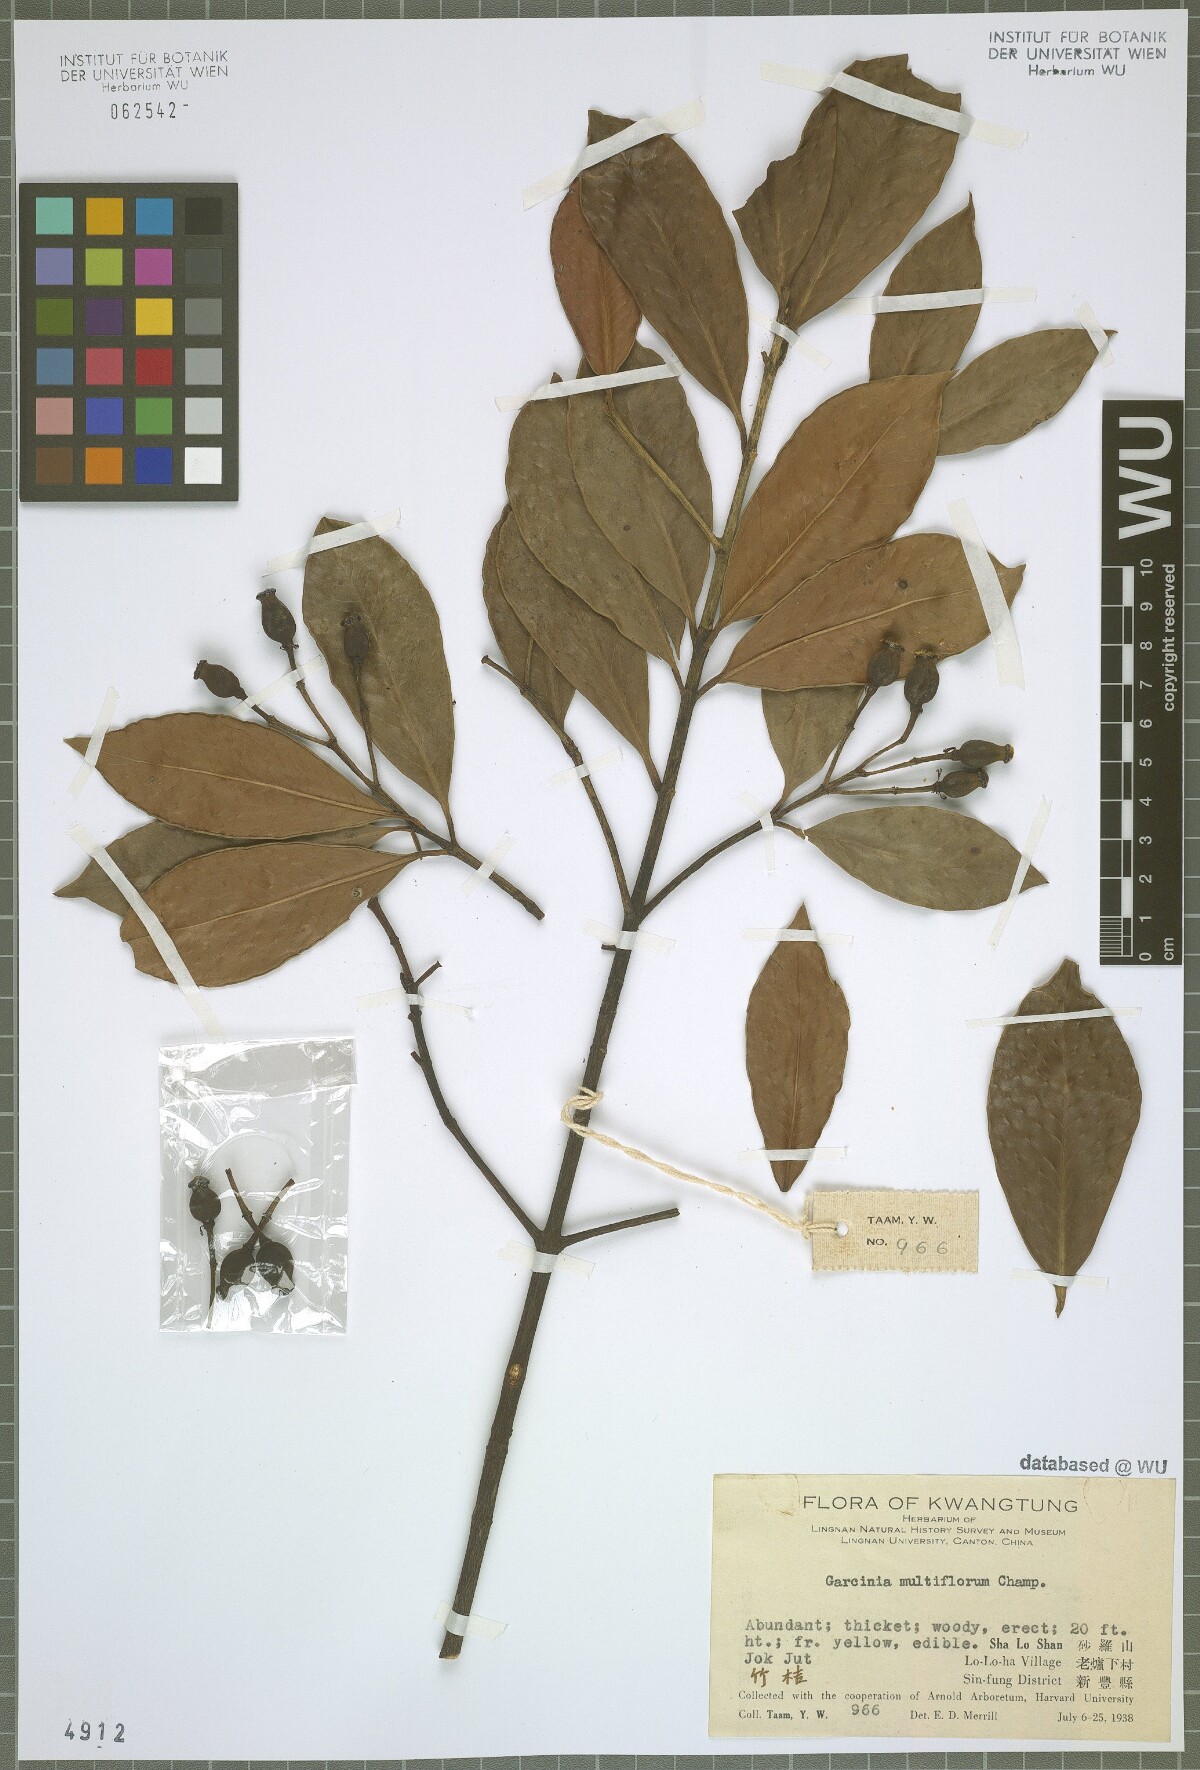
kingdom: Plantae
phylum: Tracheophyta
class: Magnoliopsida
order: Malpighiales
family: Clusiaceae
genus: Garcinia
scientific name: Garcinia multiflora
